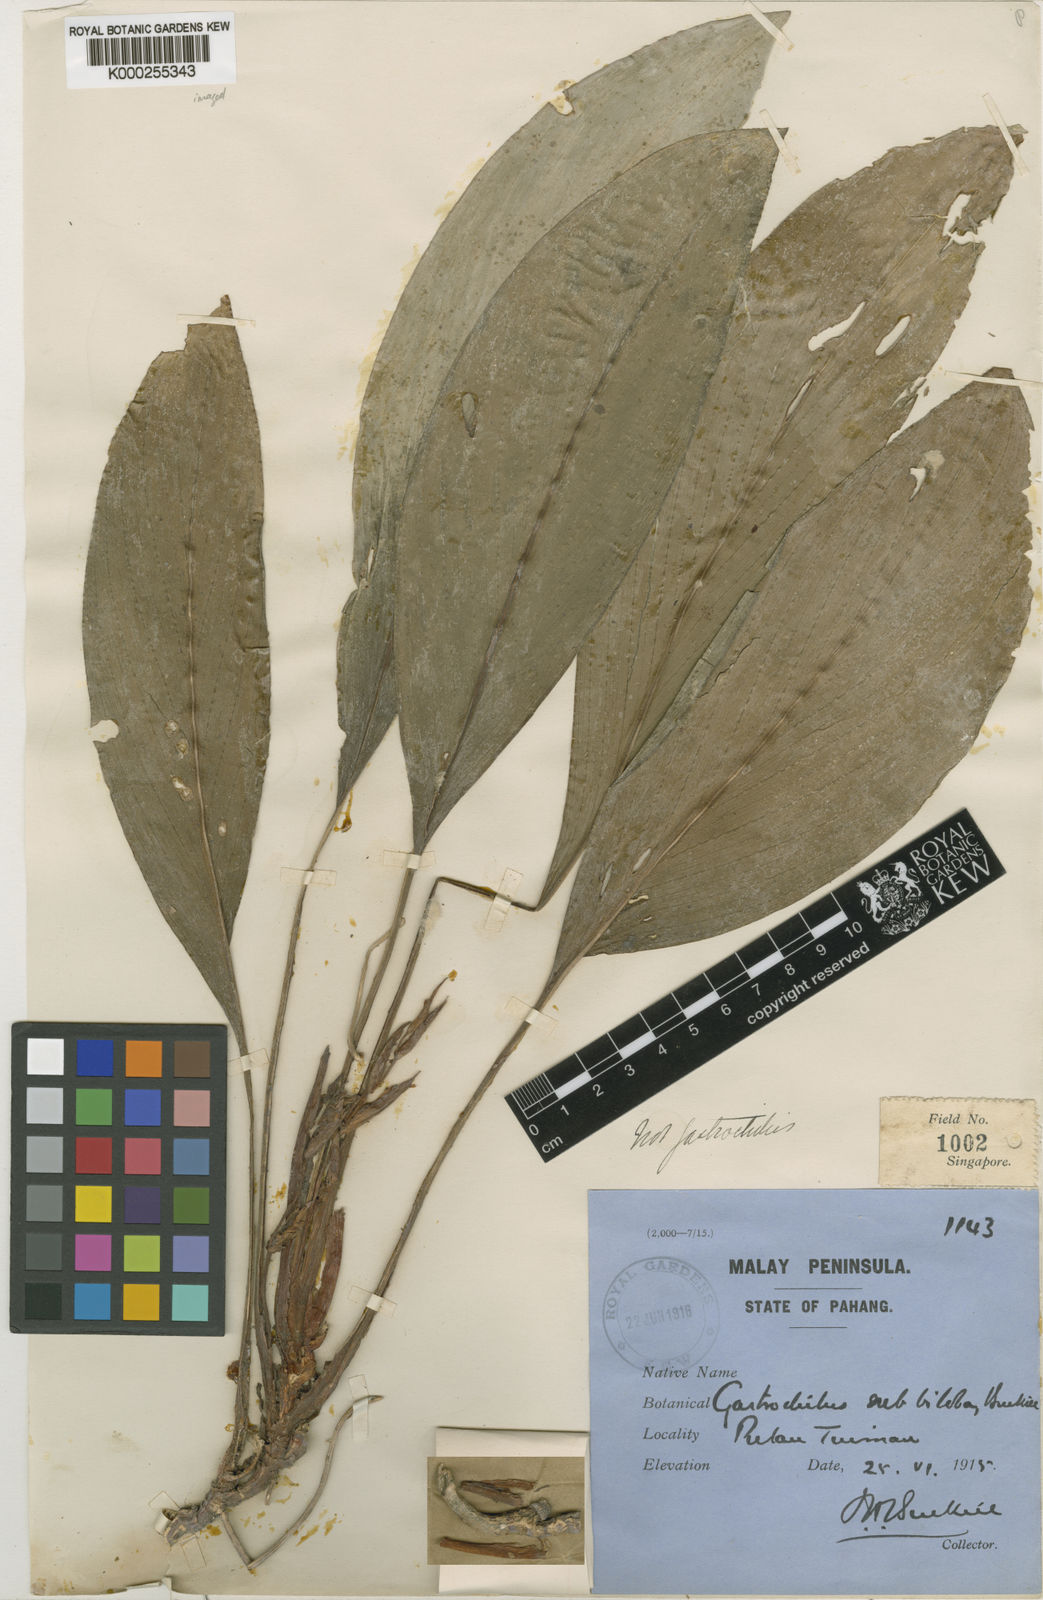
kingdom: Plantae
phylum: Tracheophyta
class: Liliopsida
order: Zingiberales
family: Zingiberaceae
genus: Scaphochlamys
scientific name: Scaphochlamys subbiloba
